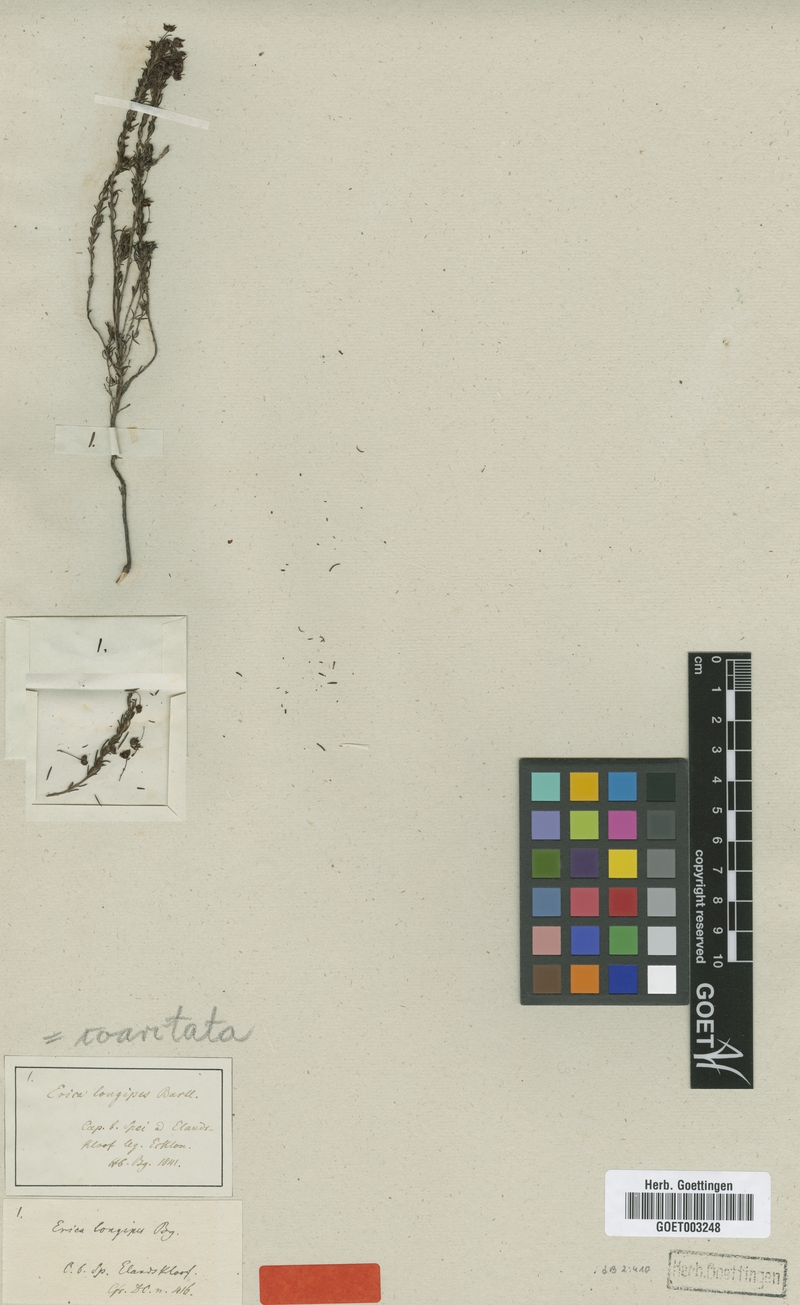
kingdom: Plantae
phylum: Tracheophyta
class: Magnoliopsida
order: Ericales
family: Ericaceae
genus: Erica
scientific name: Erica coarctata
